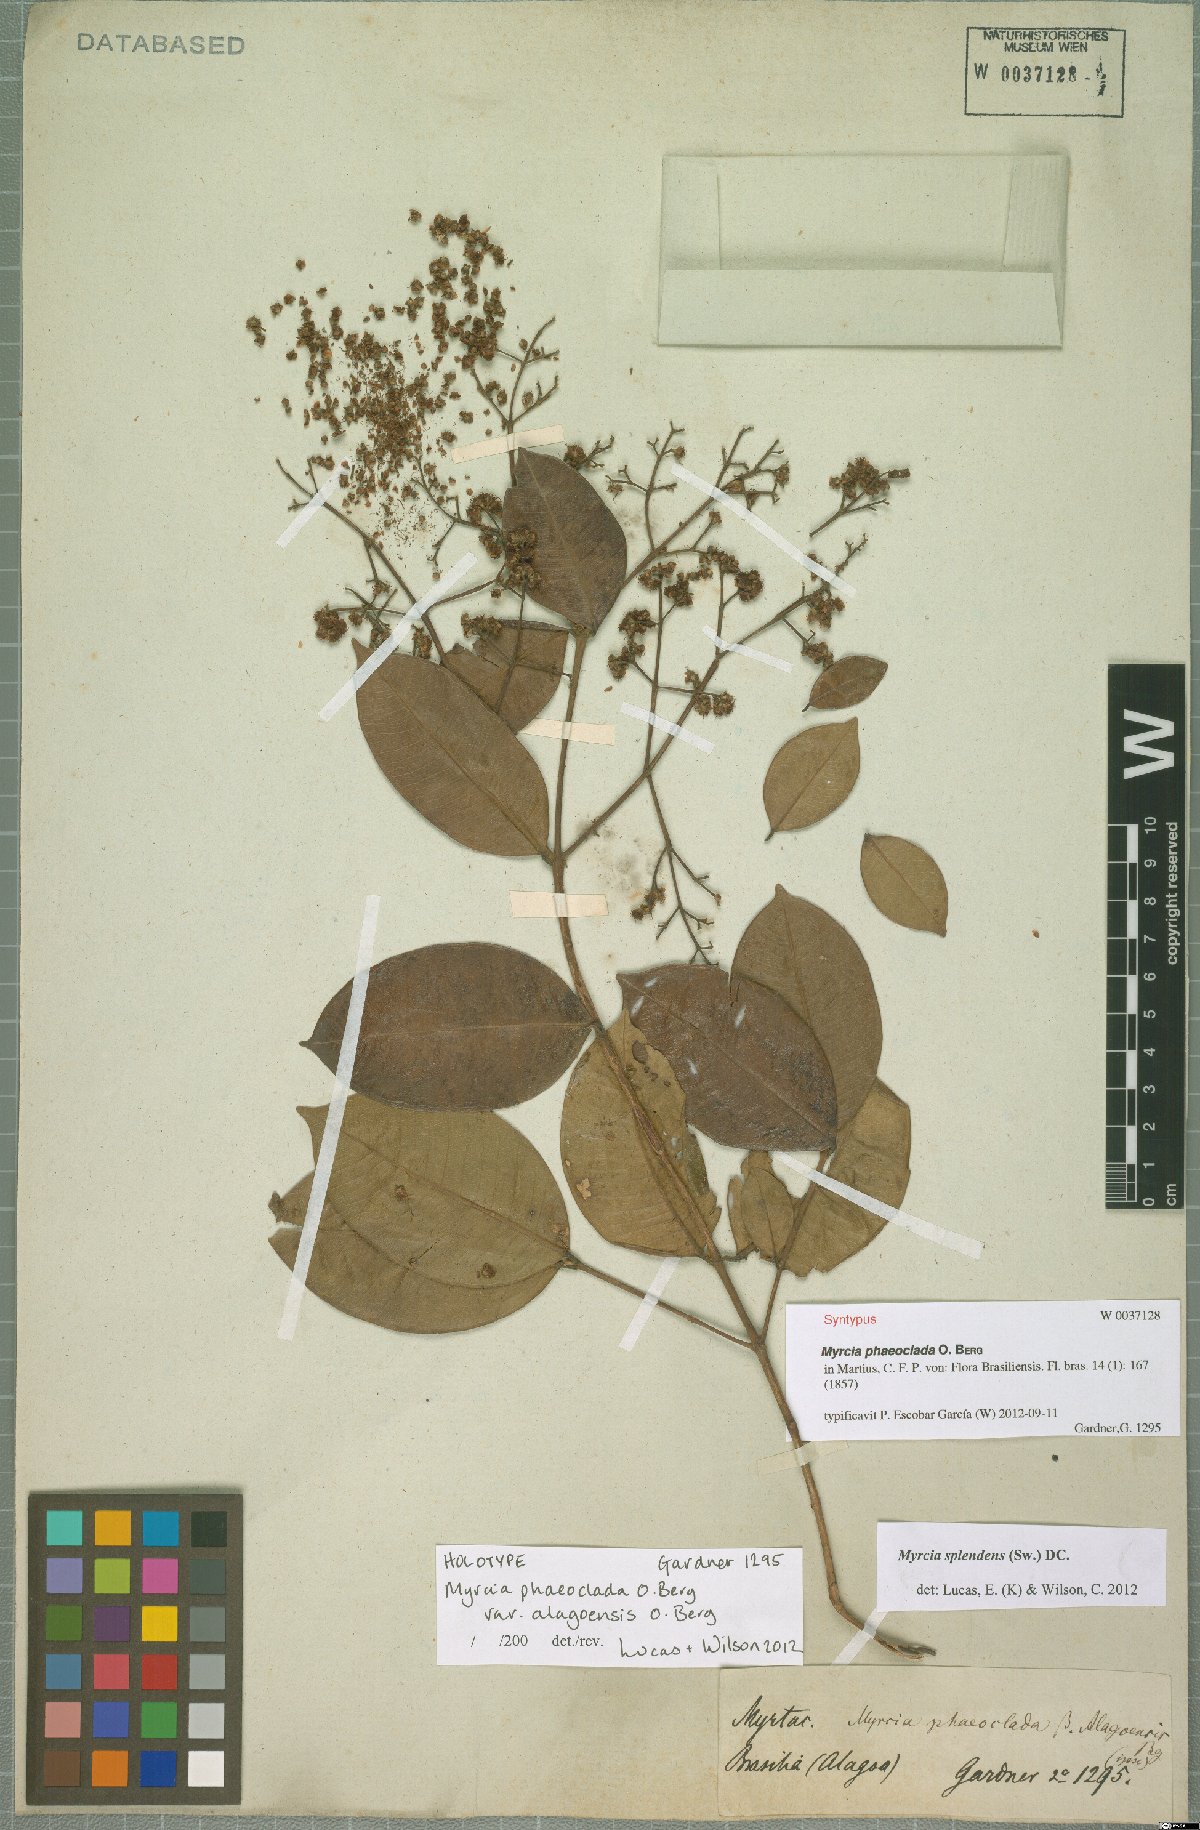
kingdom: Plantae
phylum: Tracheophyta
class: Magnoliopsida
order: Myrtales
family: Myrtaceae
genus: Myrcia
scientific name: Myrcia splendens
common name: Surinam cherry
